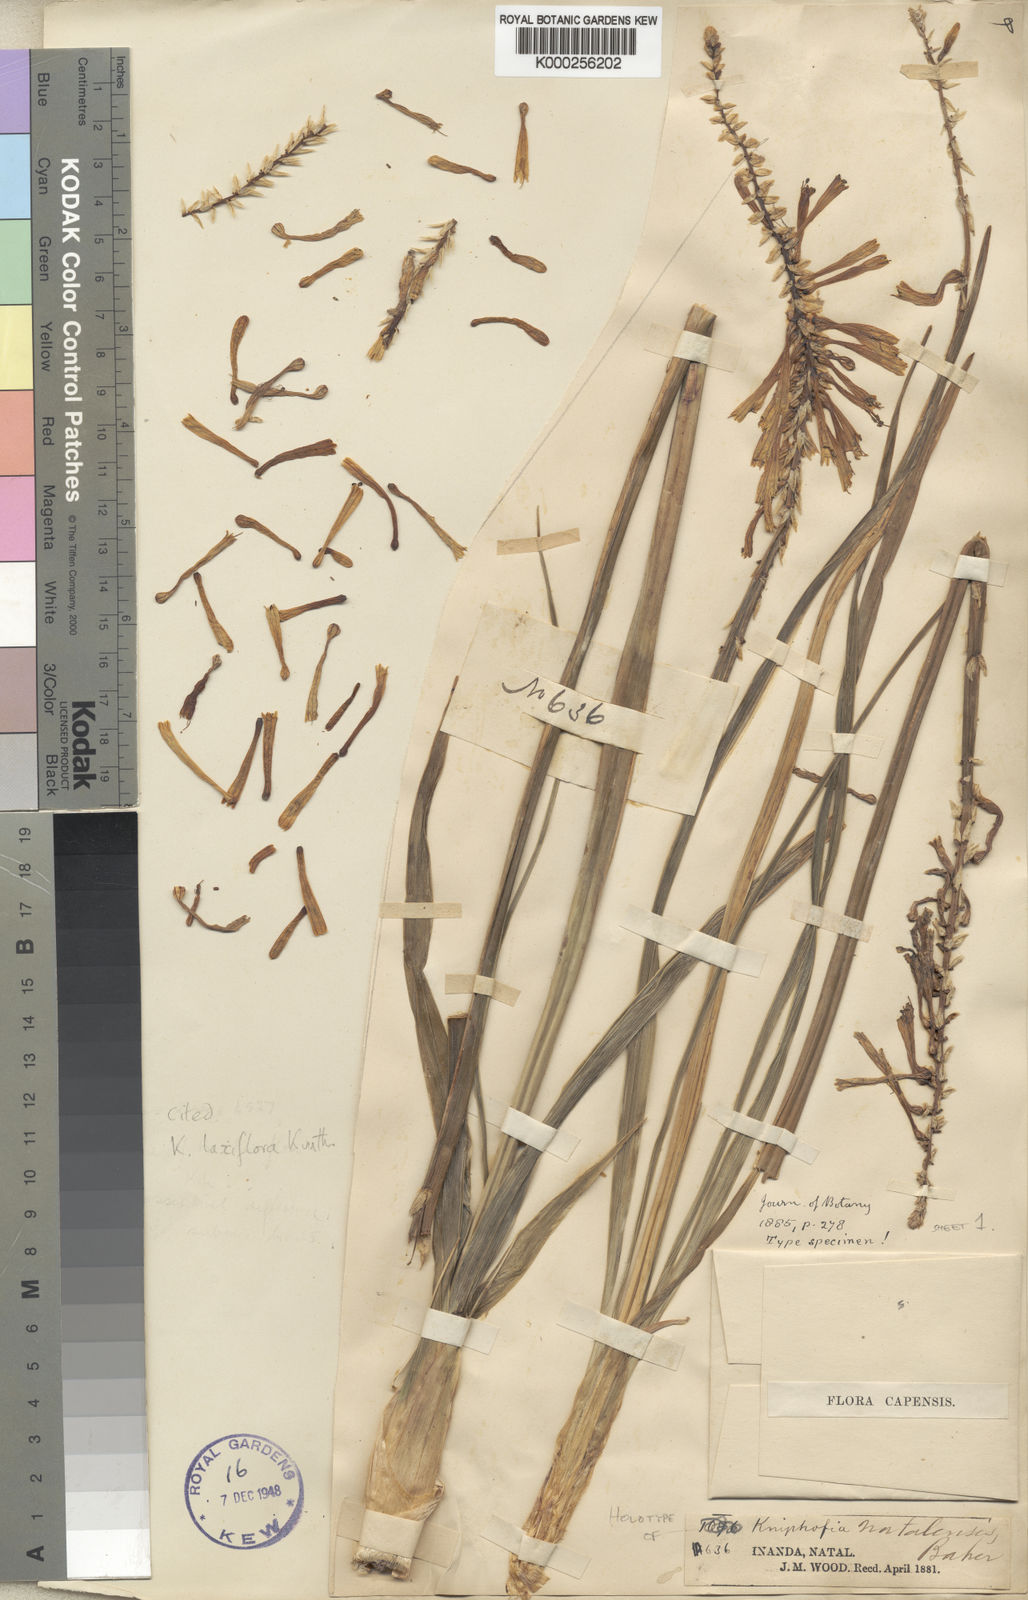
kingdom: Plantae
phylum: Tracheophyta
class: Liliopsida
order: Asparagales
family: Asphodelaceae
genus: Kniphofia
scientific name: Kniphofia laxiflora
